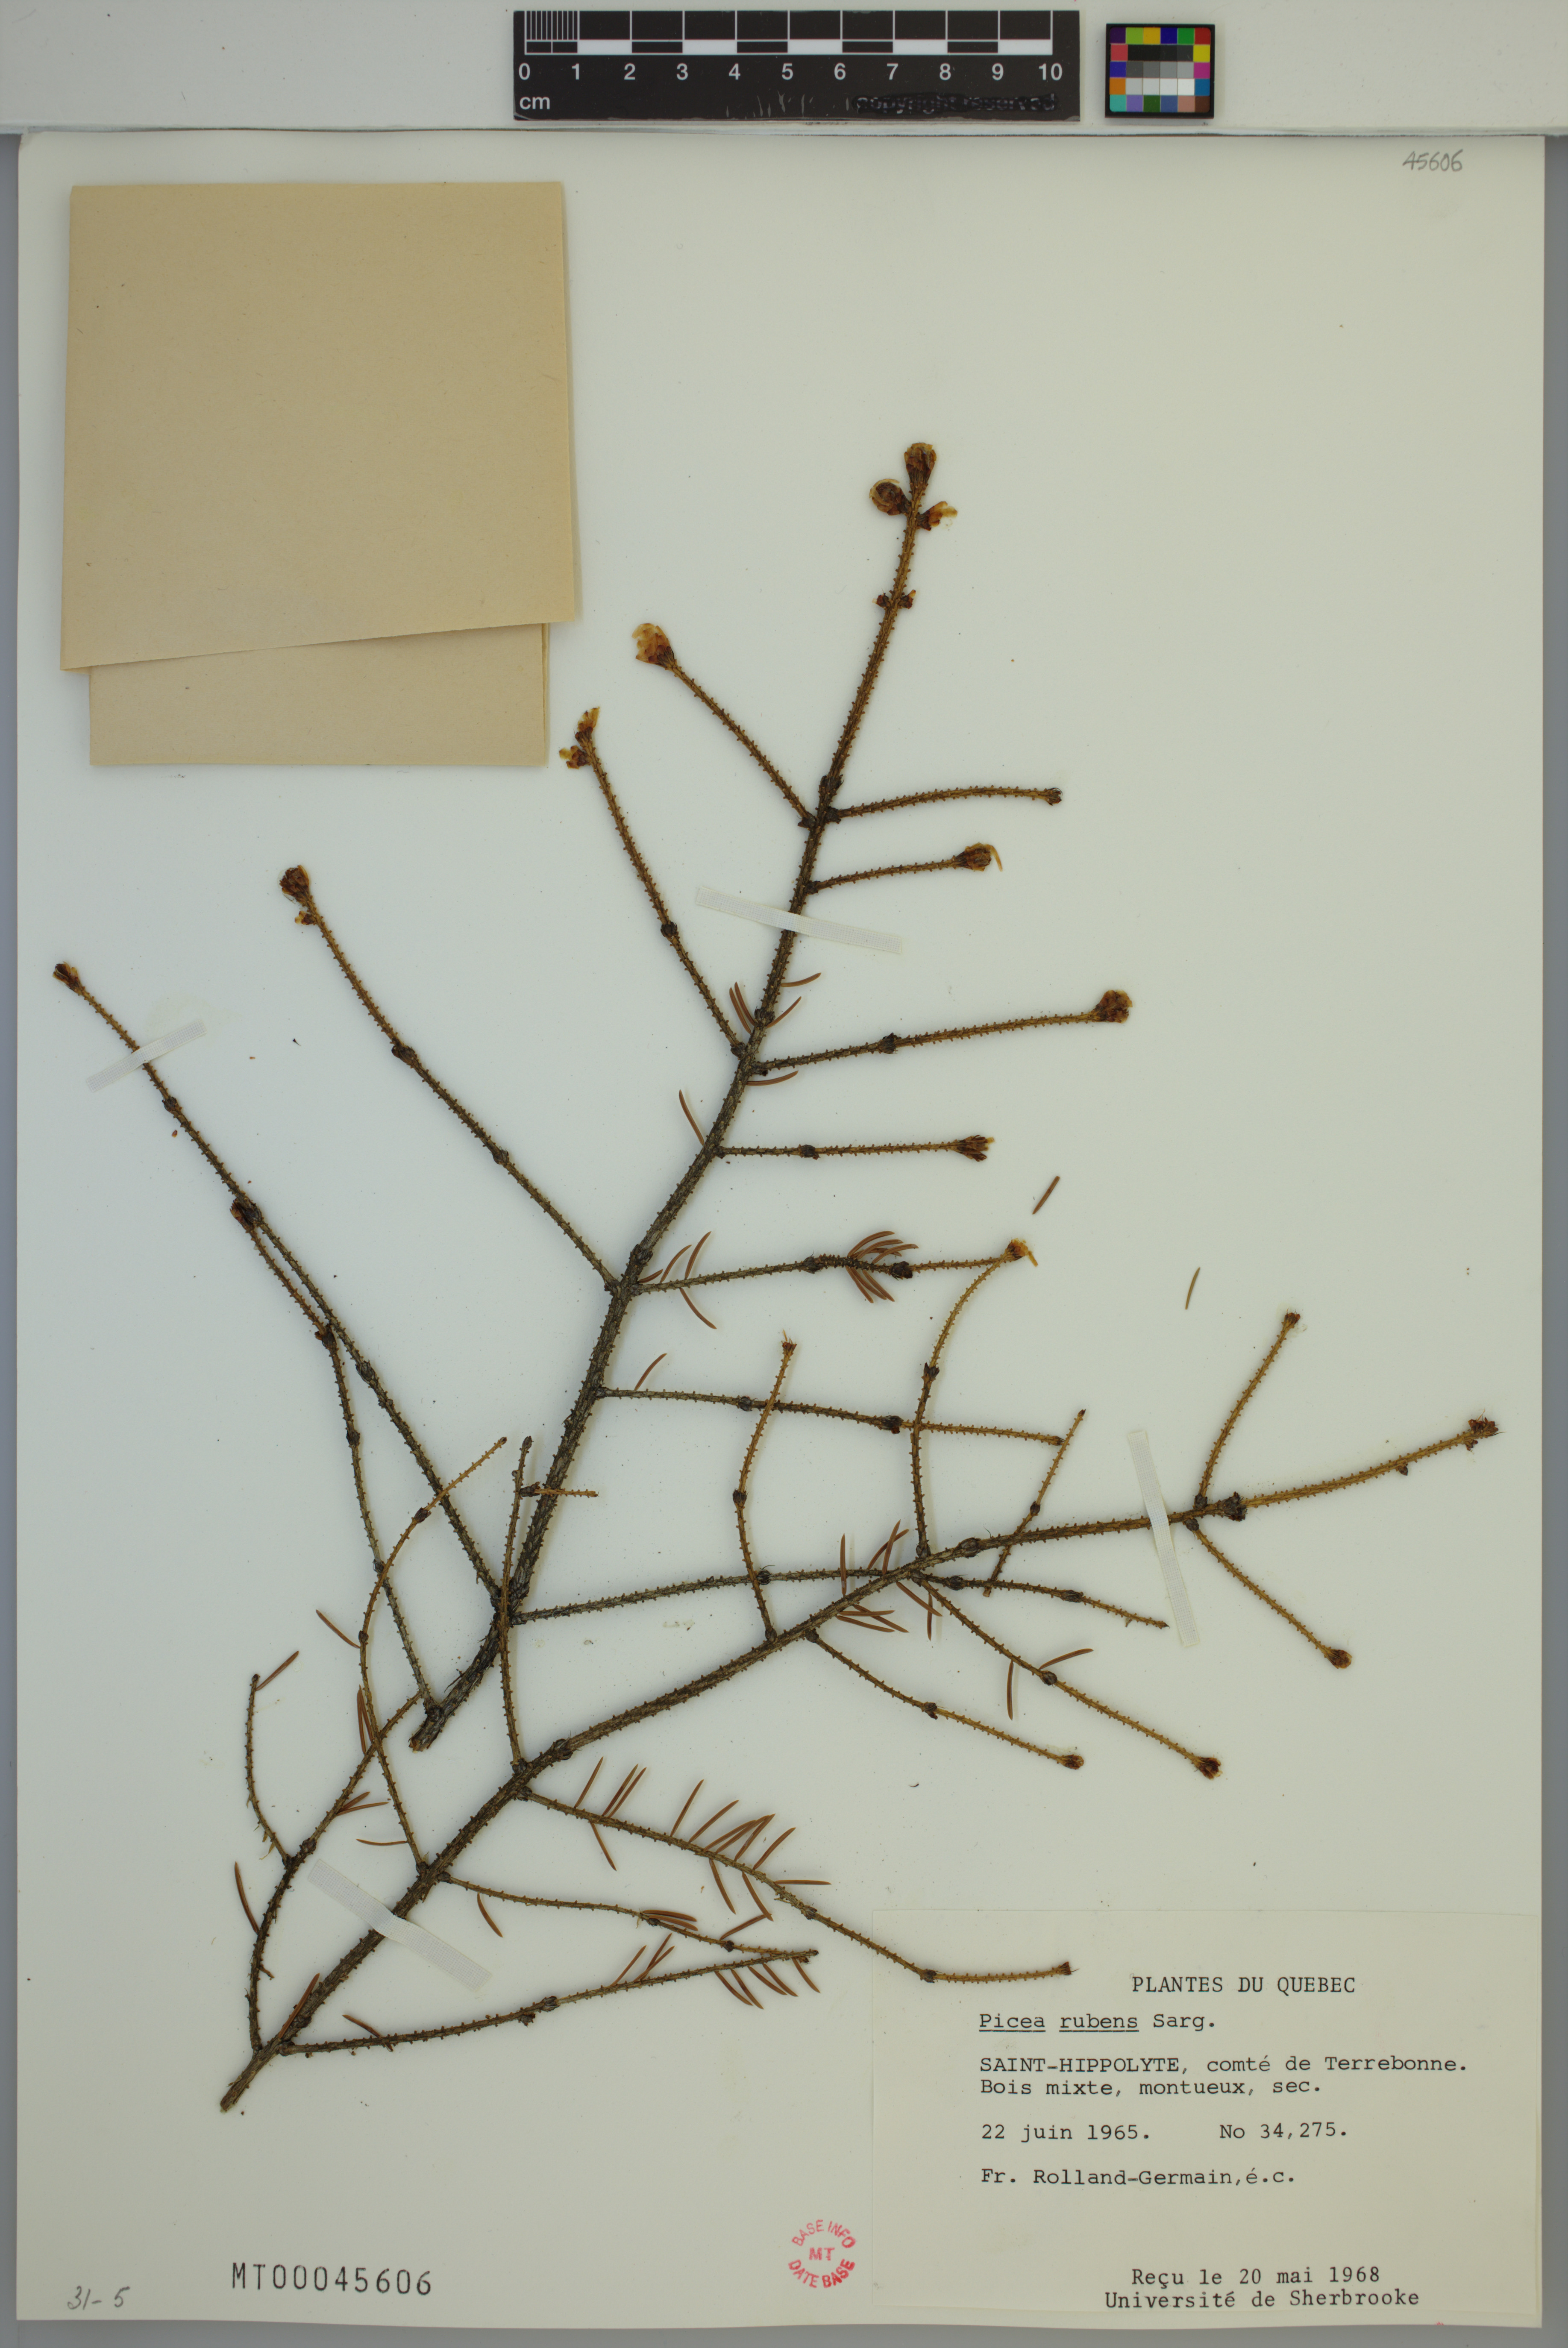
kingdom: Plantae
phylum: Tracheophyta
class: Pinopsida
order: Pinales
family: Pinaceae
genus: Picea
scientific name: Picea rubens
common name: Red spruce
